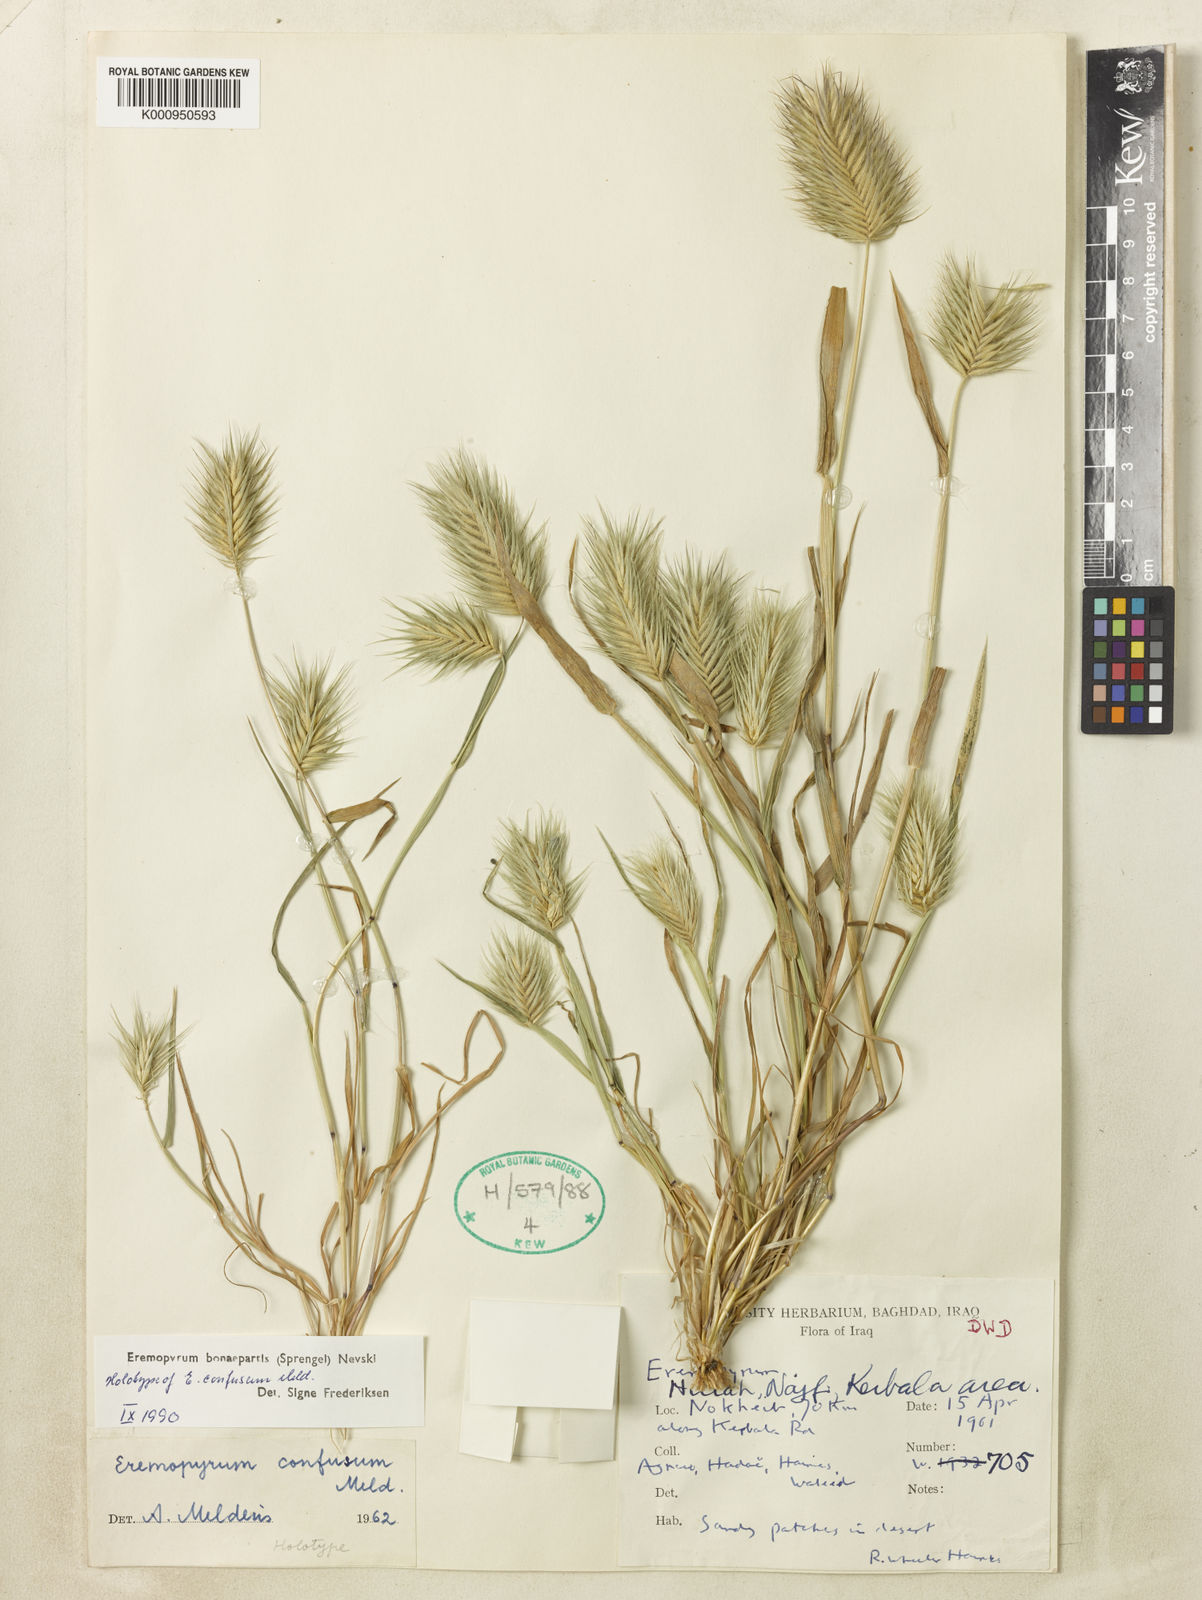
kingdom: Plantae
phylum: Tracheophyta
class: Liliopsida
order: Poales
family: Poaceae
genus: Eremopyrum
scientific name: Eremopyrum bonaepartis
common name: Tapertip false wheatgrass
